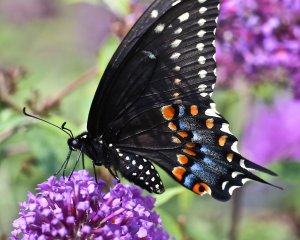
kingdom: Animalia
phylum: Arthropoda
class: Insecta
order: Lepidoptera
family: Papilionidae
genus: Papilio
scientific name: Papilio polyxenes
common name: Black Swallowtail
